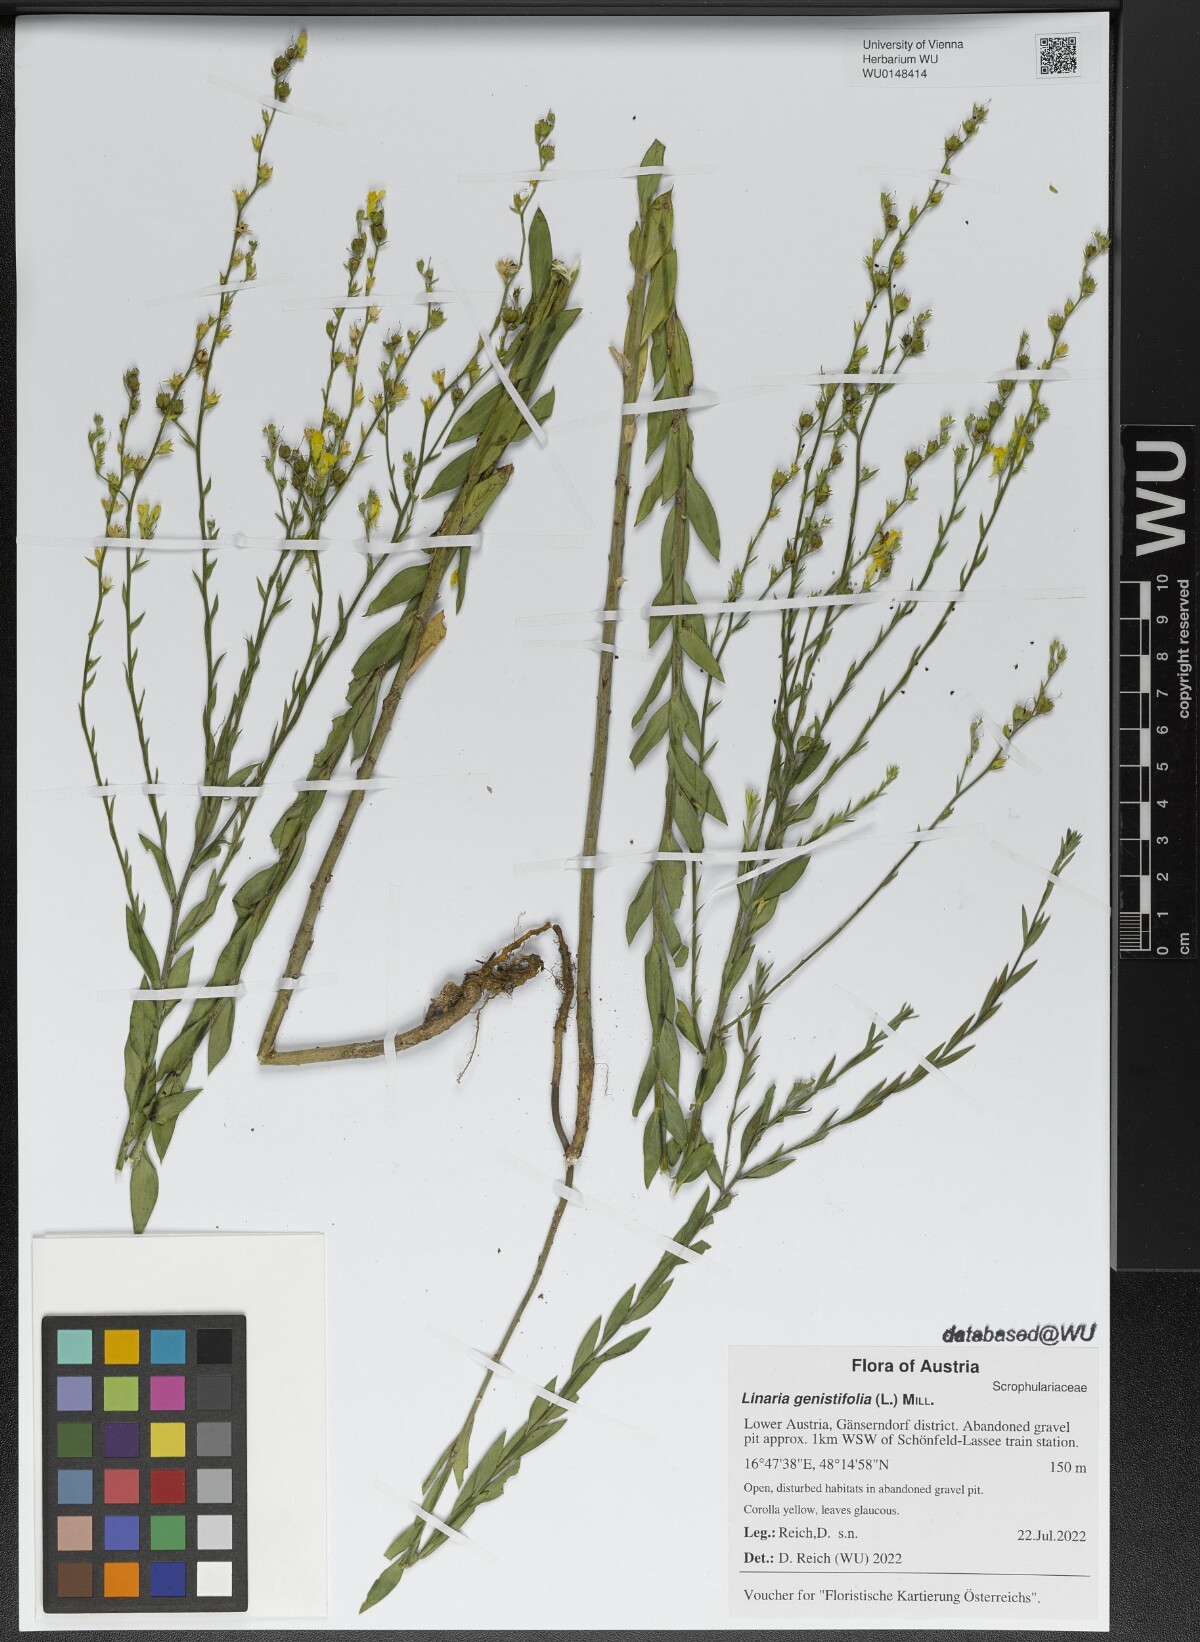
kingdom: Plantae
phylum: Tracheophyta
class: Magnoliopsida
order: Lamiales
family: Plantaginaceae
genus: Linaria
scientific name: Linaria genistifolia
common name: Broomleaf toadflax
